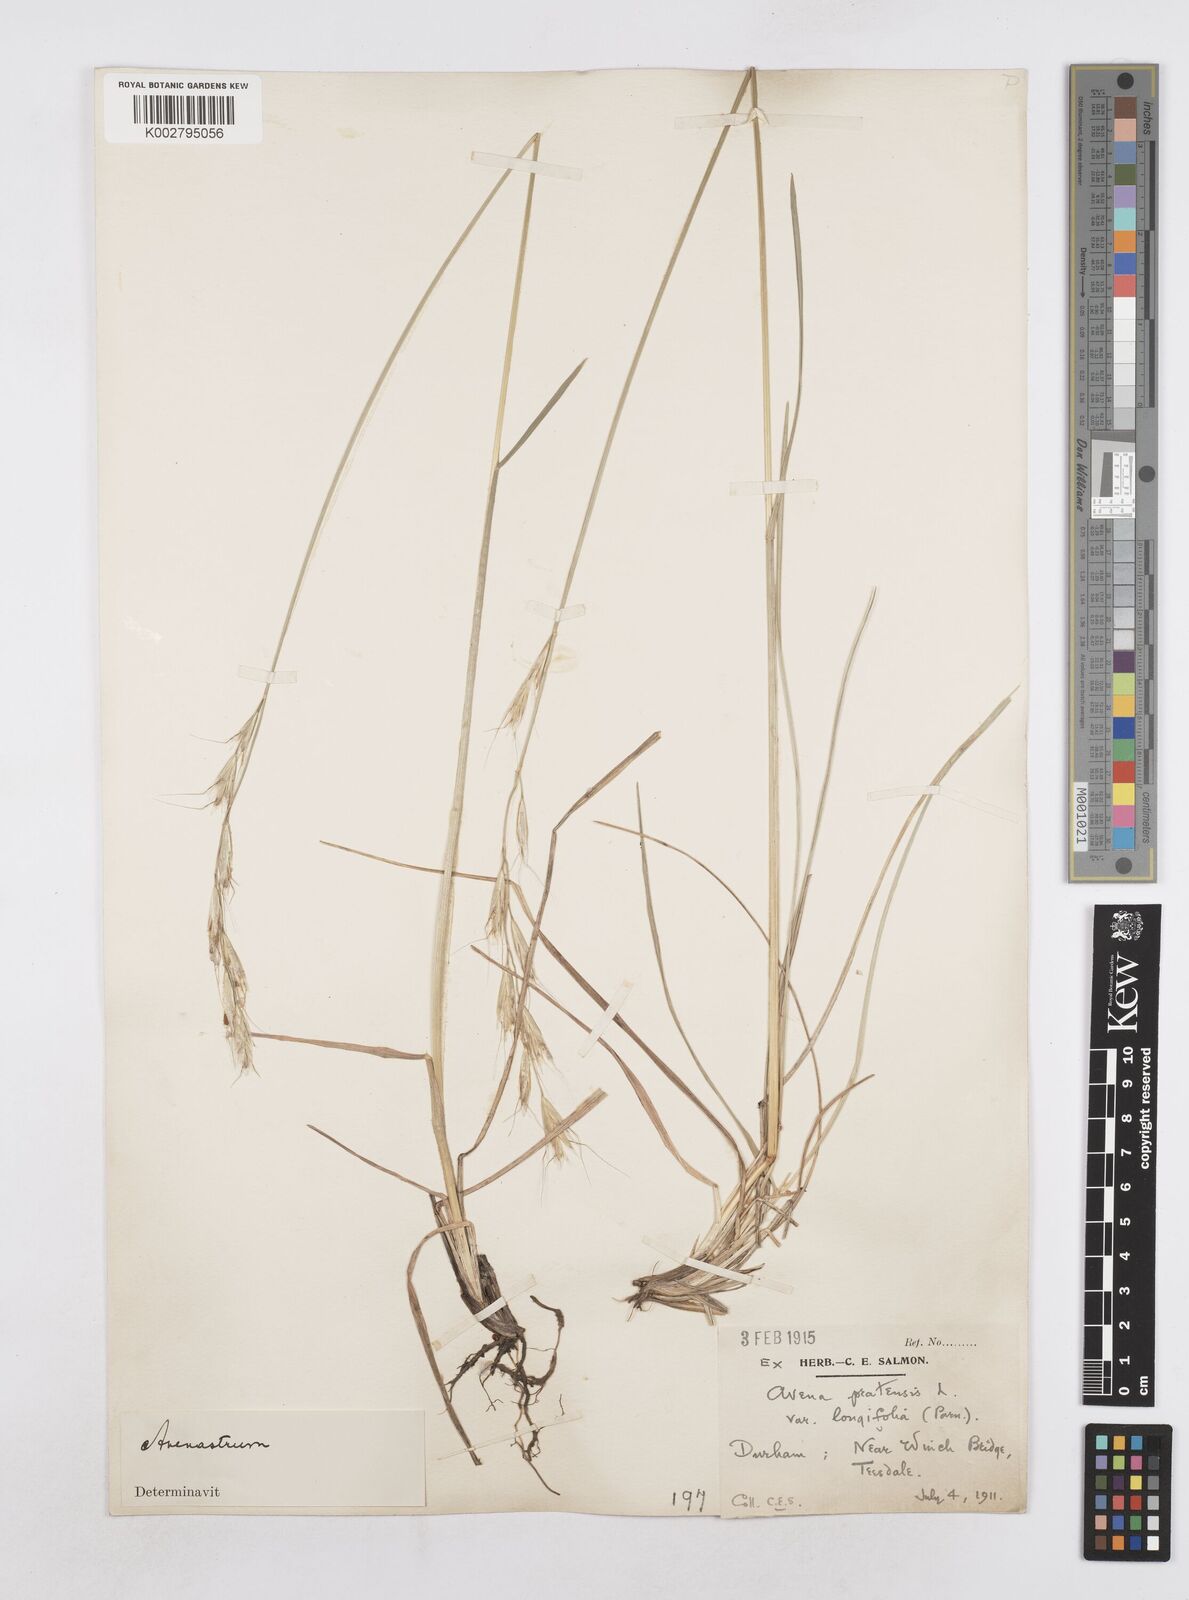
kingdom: Plantae
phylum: Tracheophyta
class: Liliopsida
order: Poales
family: Poaceae
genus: Helictotrichon
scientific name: Helictotrichon
